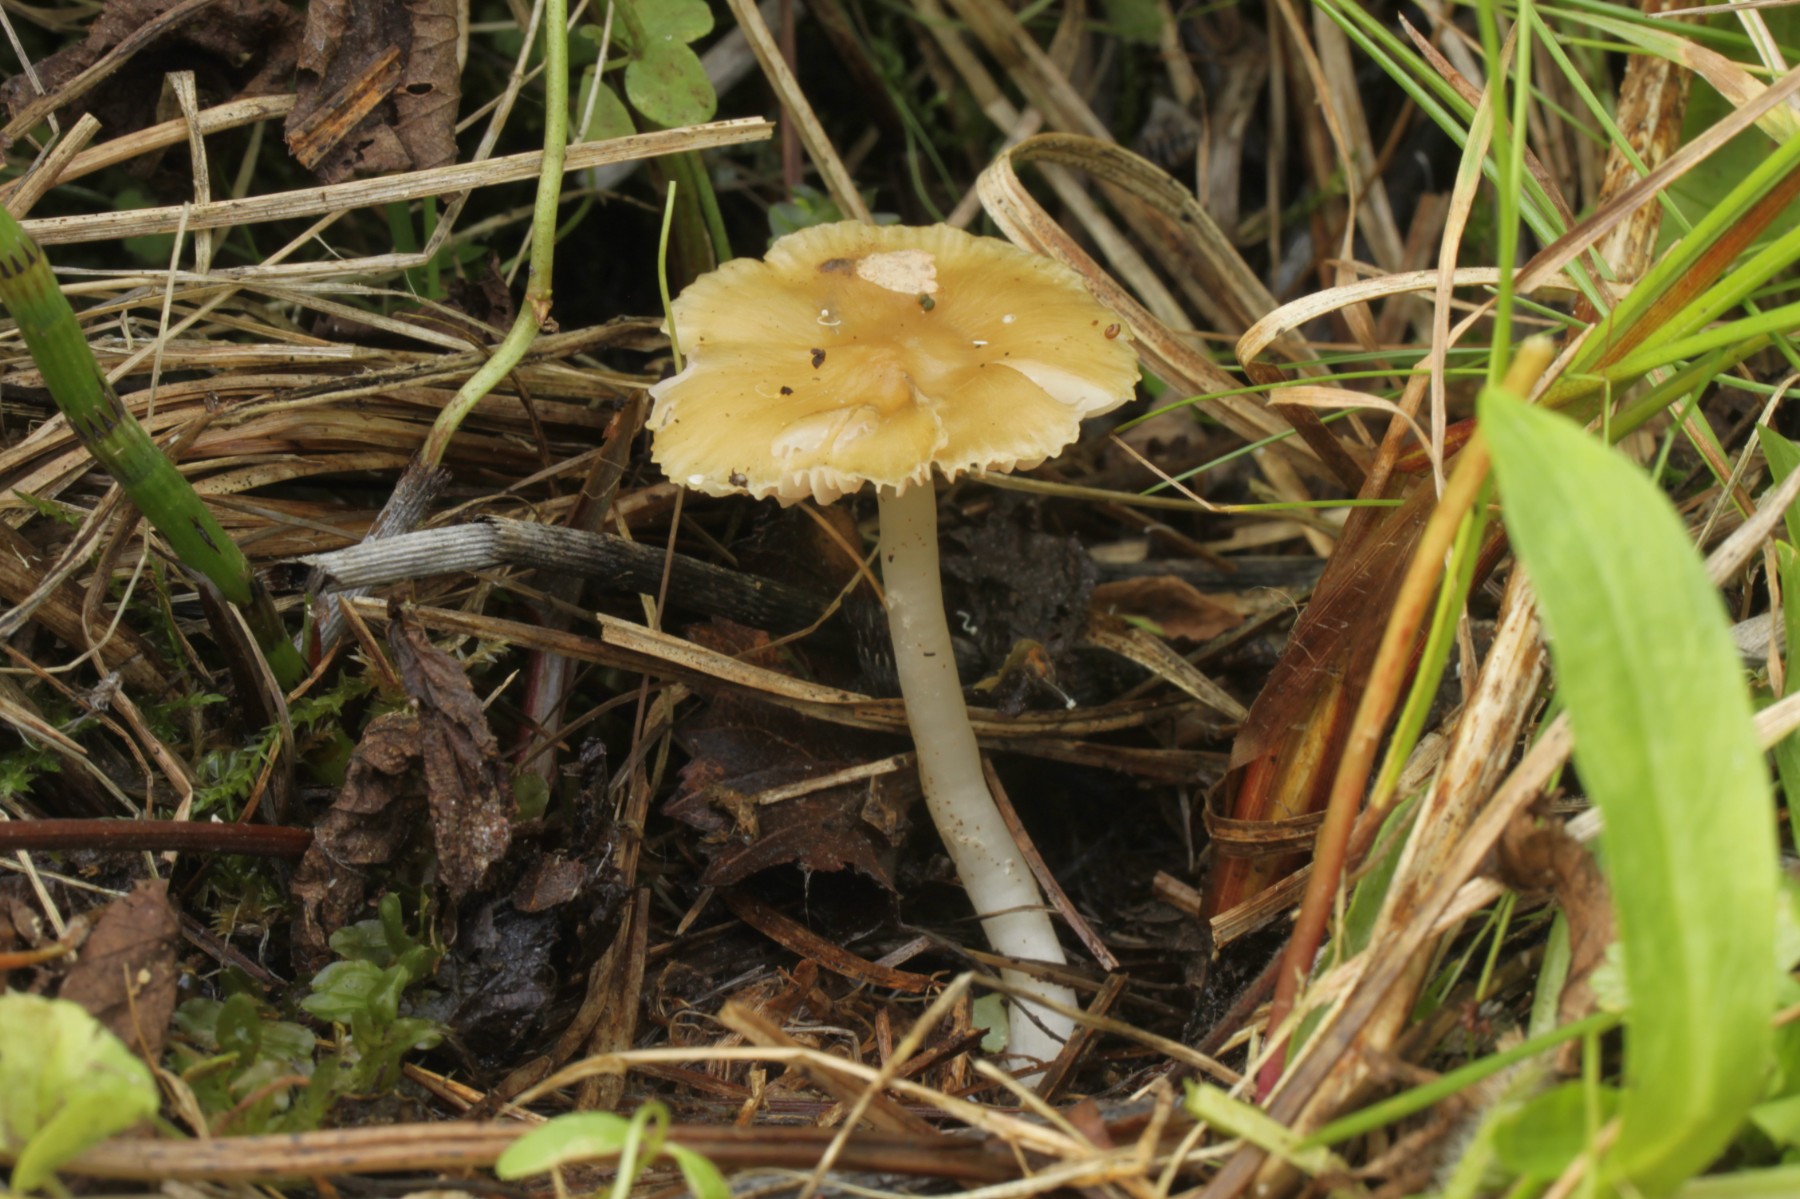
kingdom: Fungi
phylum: Basidiomycota
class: Agaricomycetes
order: Agaricales
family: Entolomataceae
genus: Entoloma
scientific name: Entoloma
